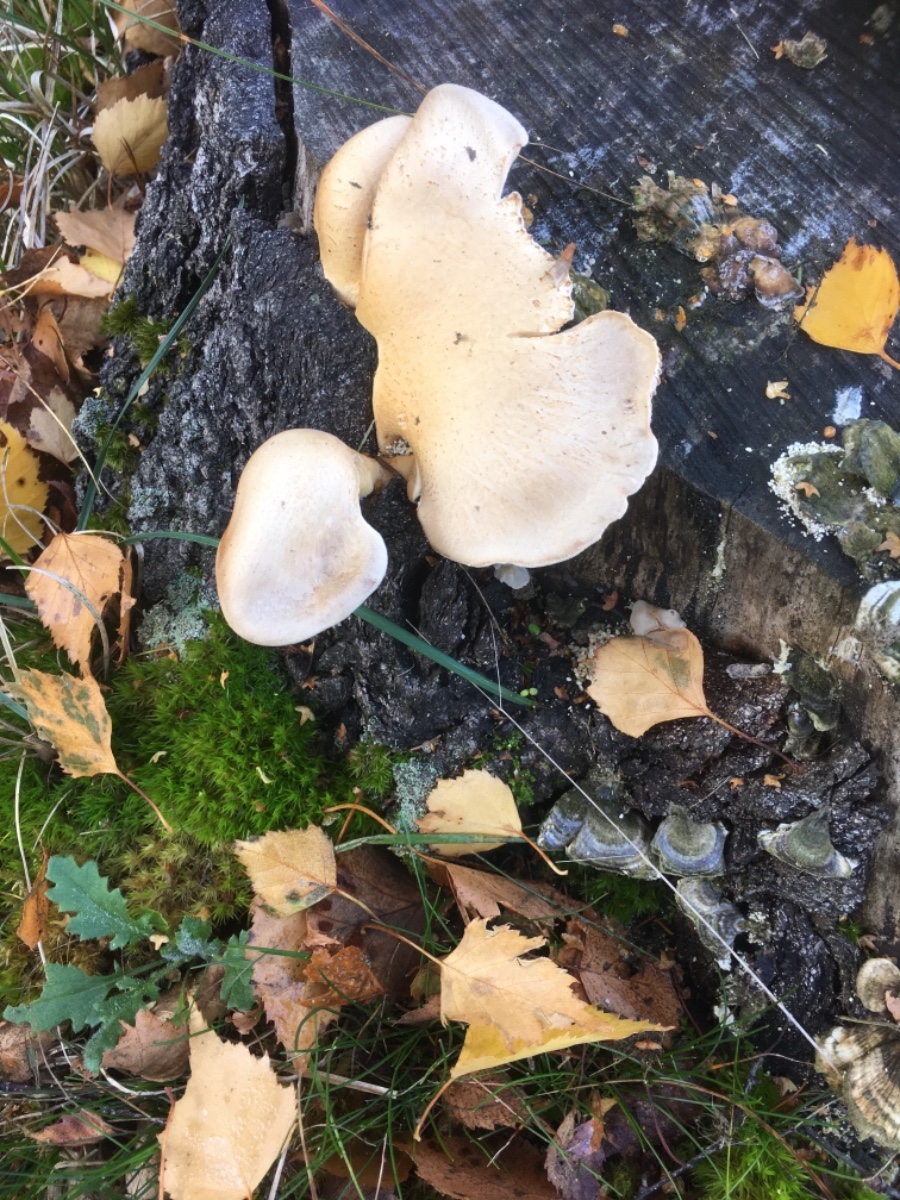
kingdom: Fungi
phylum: Basidiomycota
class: Agaricomycetes
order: Polyporales
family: Panaceae
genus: Panus
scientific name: Panus conchatus
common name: filtstokket læderhat
